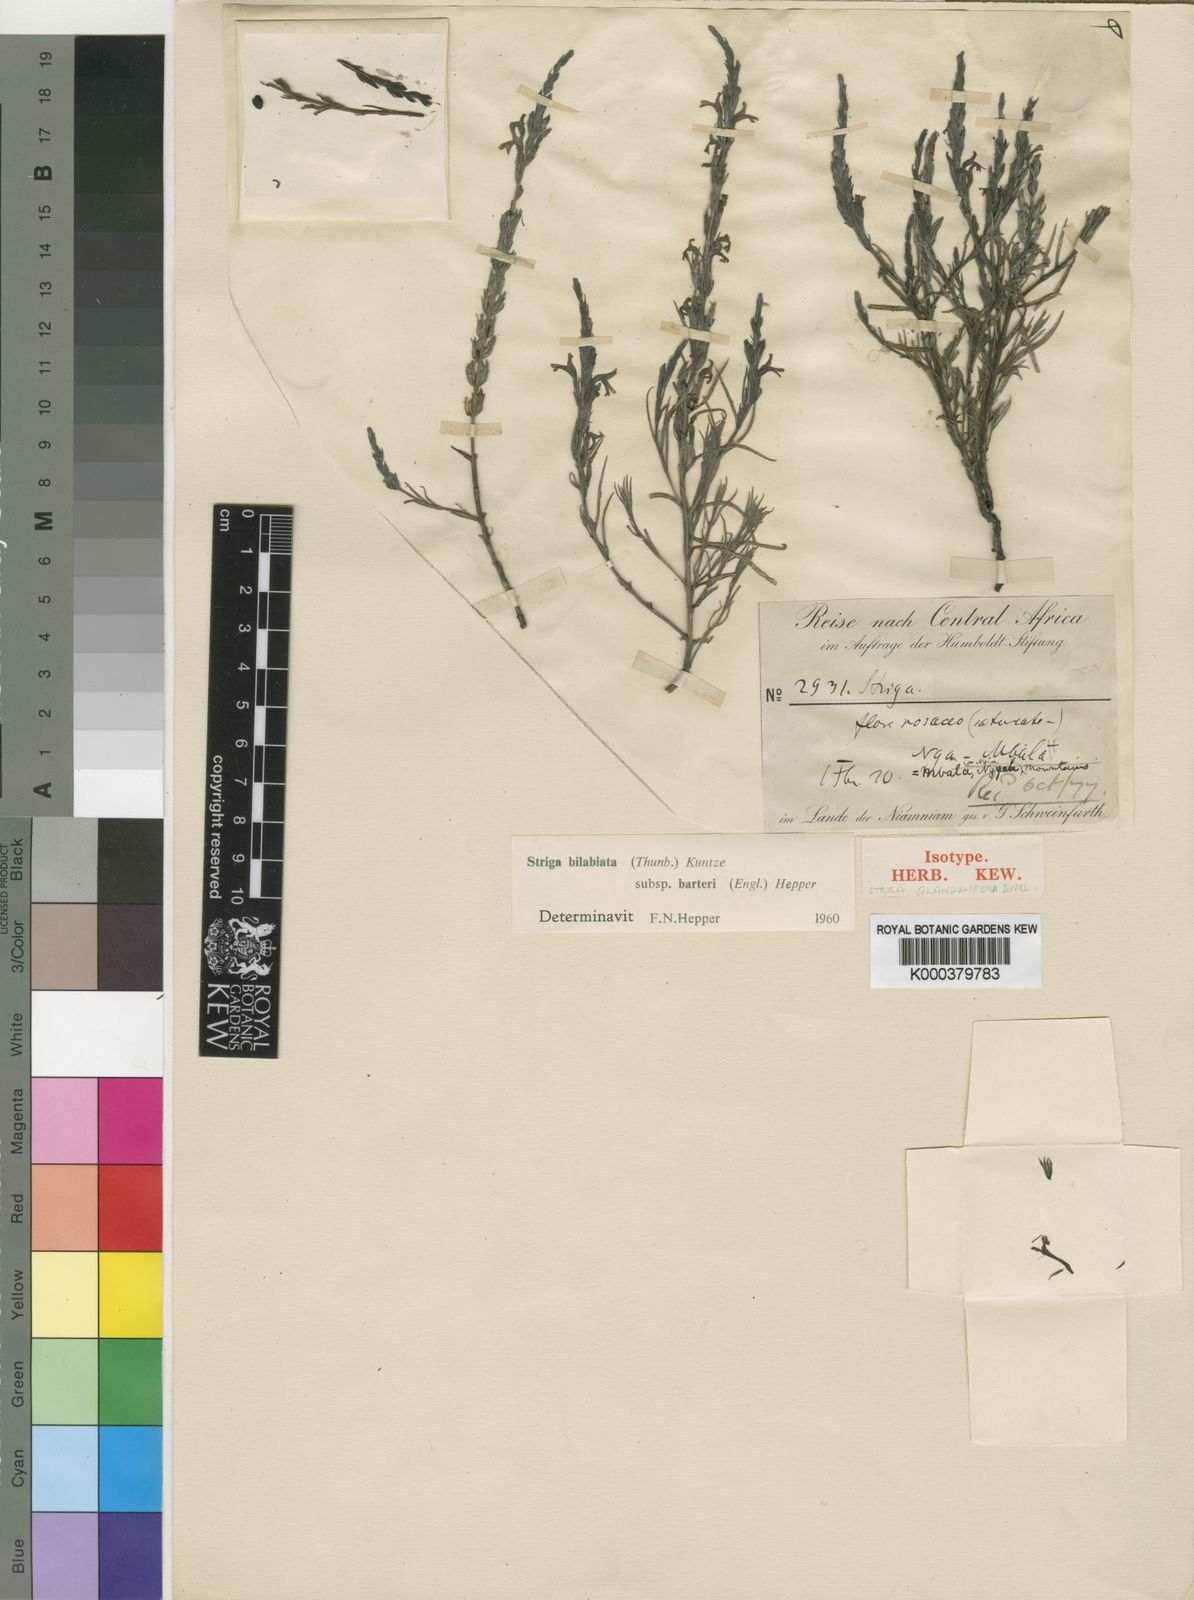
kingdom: Plantae
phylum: Tracheophyta
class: Magnoliopsida
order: Lamiales
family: Orobanchaceae
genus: Striga
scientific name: Striga bilabiata
